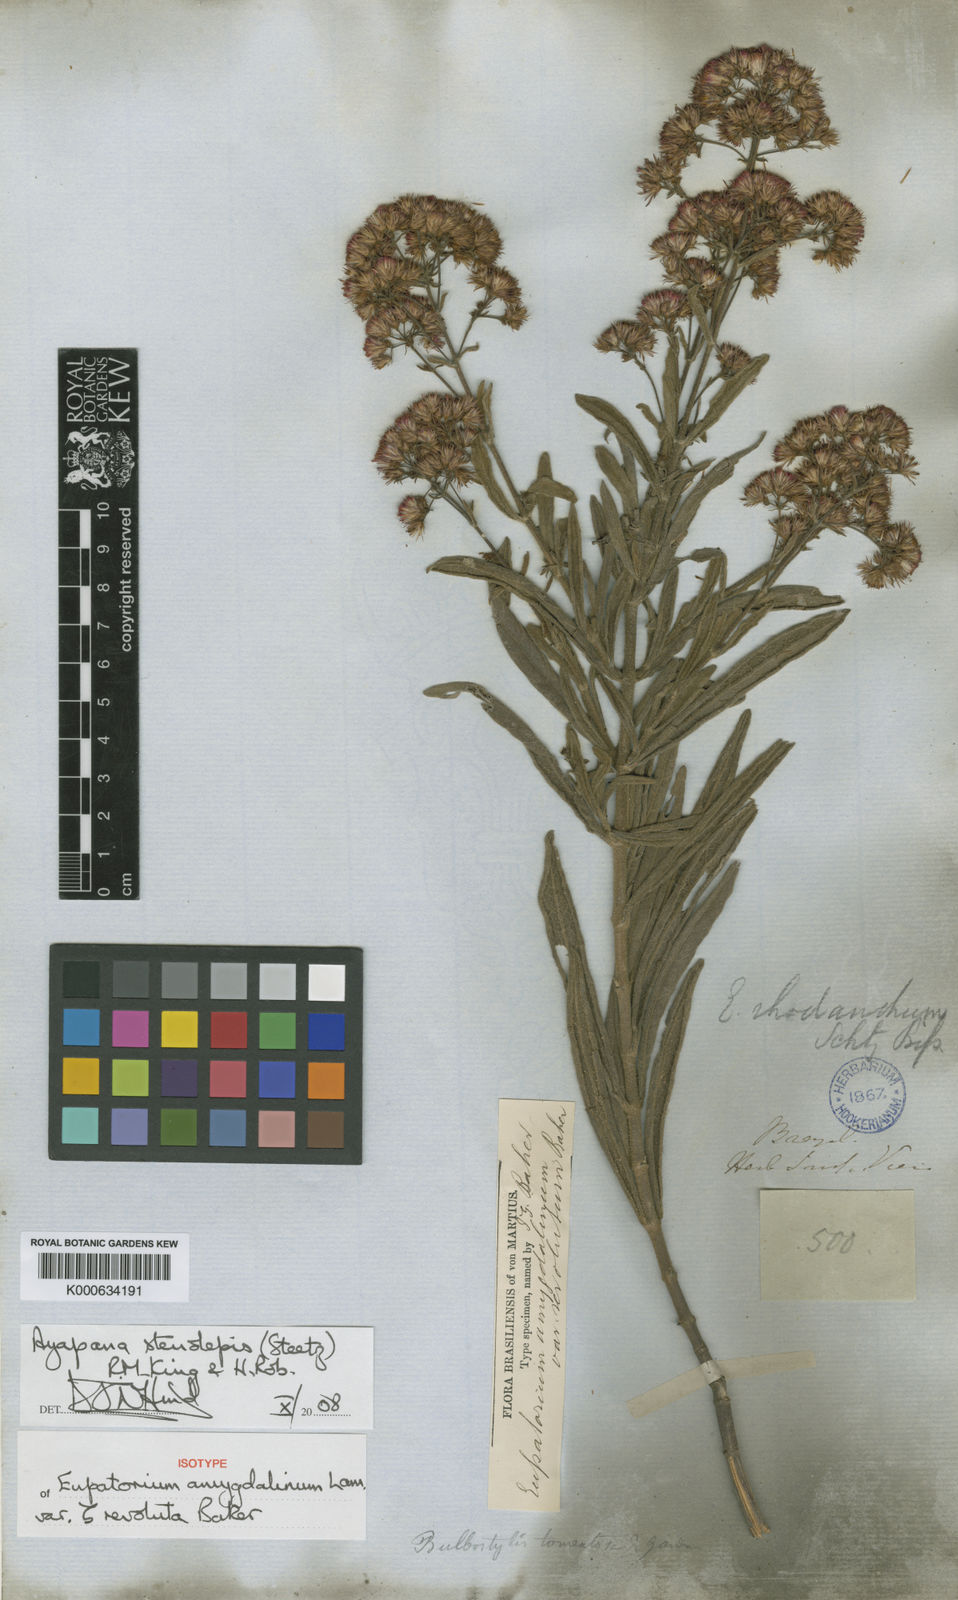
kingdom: Plantae
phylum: Tracheophyta
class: Magnoliopsida
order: Asterales
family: Asteraceae
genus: Ayapana
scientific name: Ayapana stenolepis
